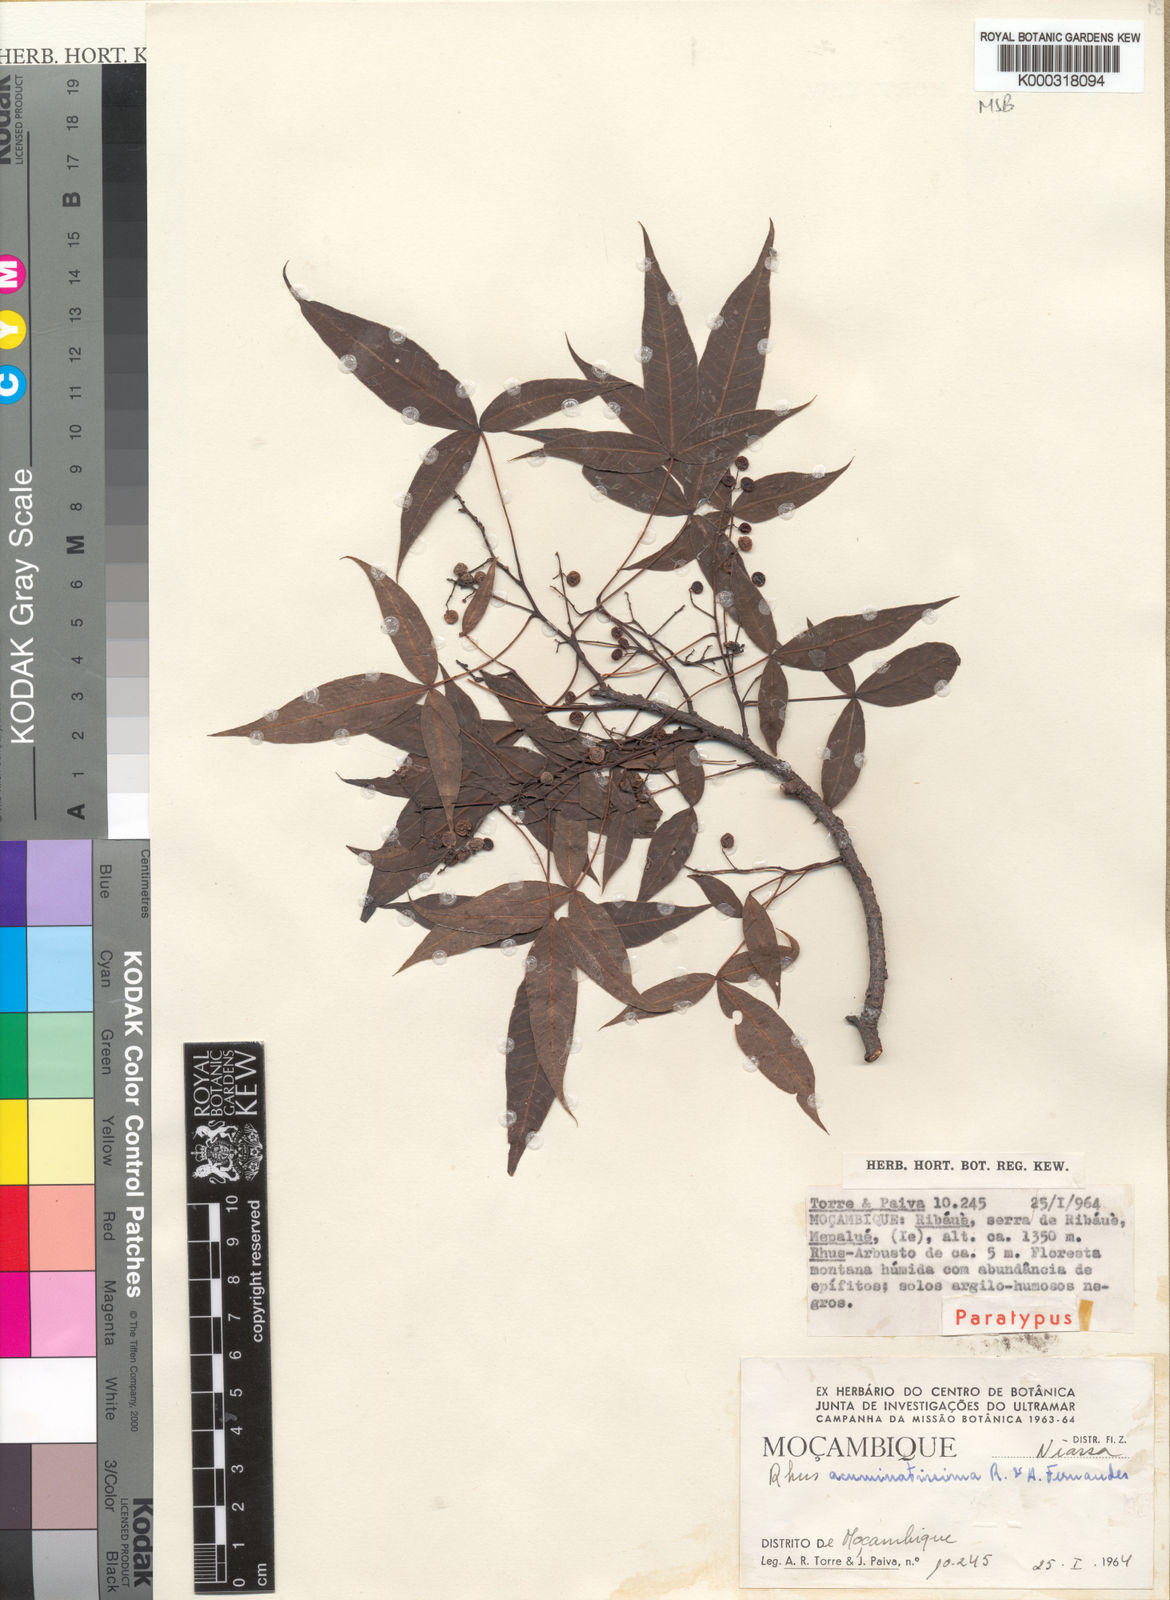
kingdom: Plantae
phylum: Tracheophyta
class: Magnoliopsida
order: Sapindales
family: Anacardiaceae
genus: Searsia
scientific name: Searsia acuminatissima
